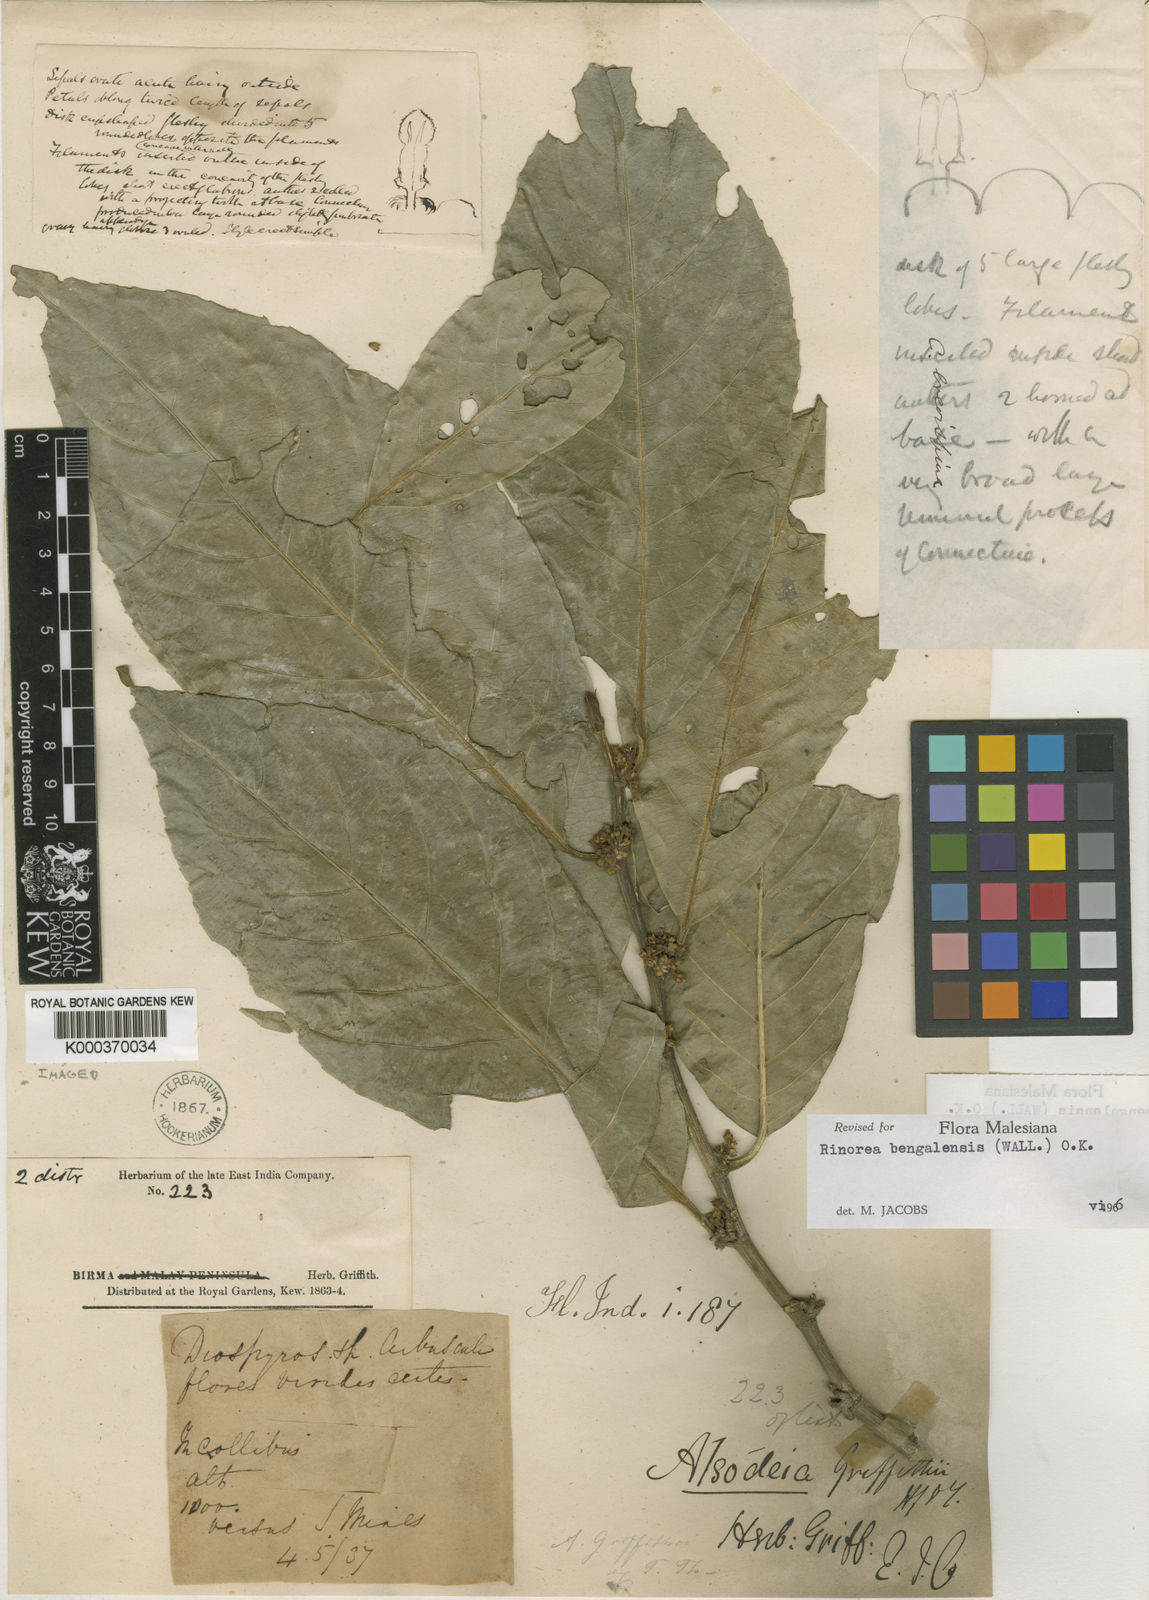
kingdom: Plantae
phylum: Tracheophyta
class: Magnoliopsida
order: Malpighiales
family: Violaceae
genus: Rinorea
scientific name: Rinorea bengalensis
